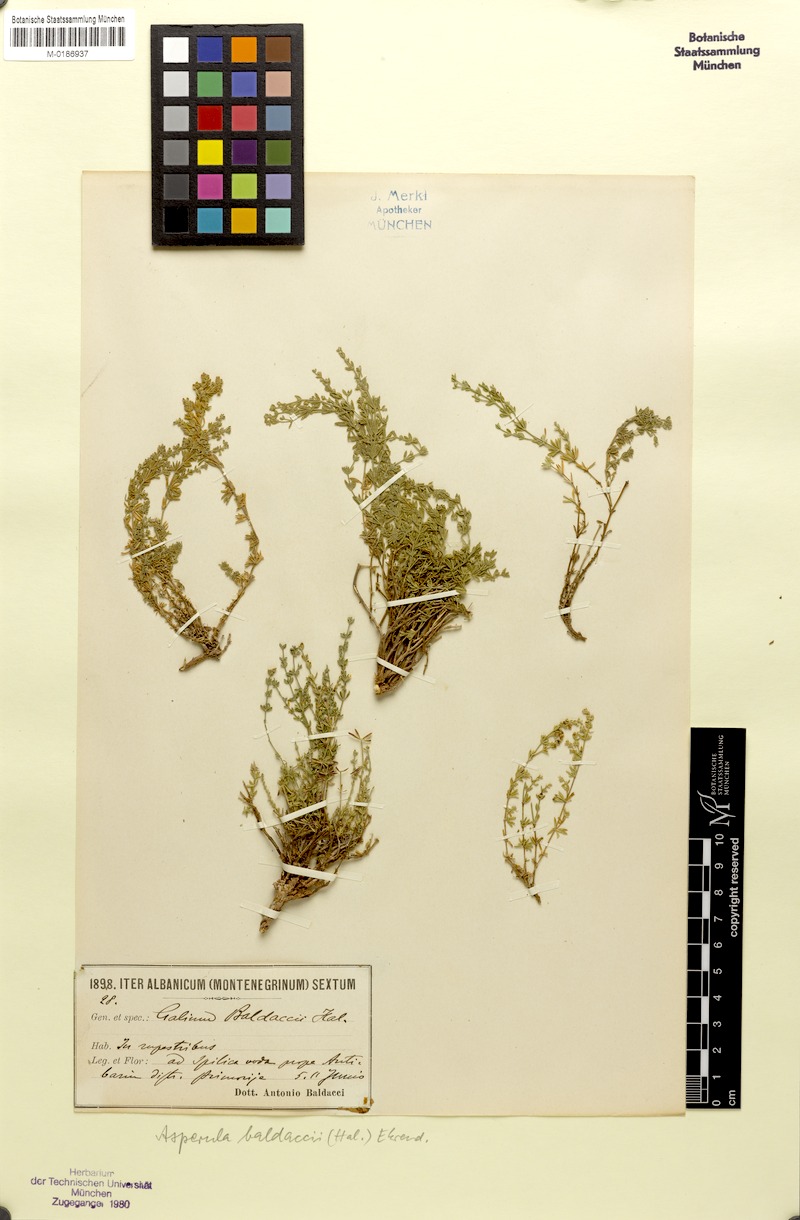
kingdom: Plantae
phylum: Tracheophyta
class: Magnoliopsida
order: Gentianales
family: Rubiaceae
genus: Thliphthisa
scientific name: Thliphthisa baldaccii
